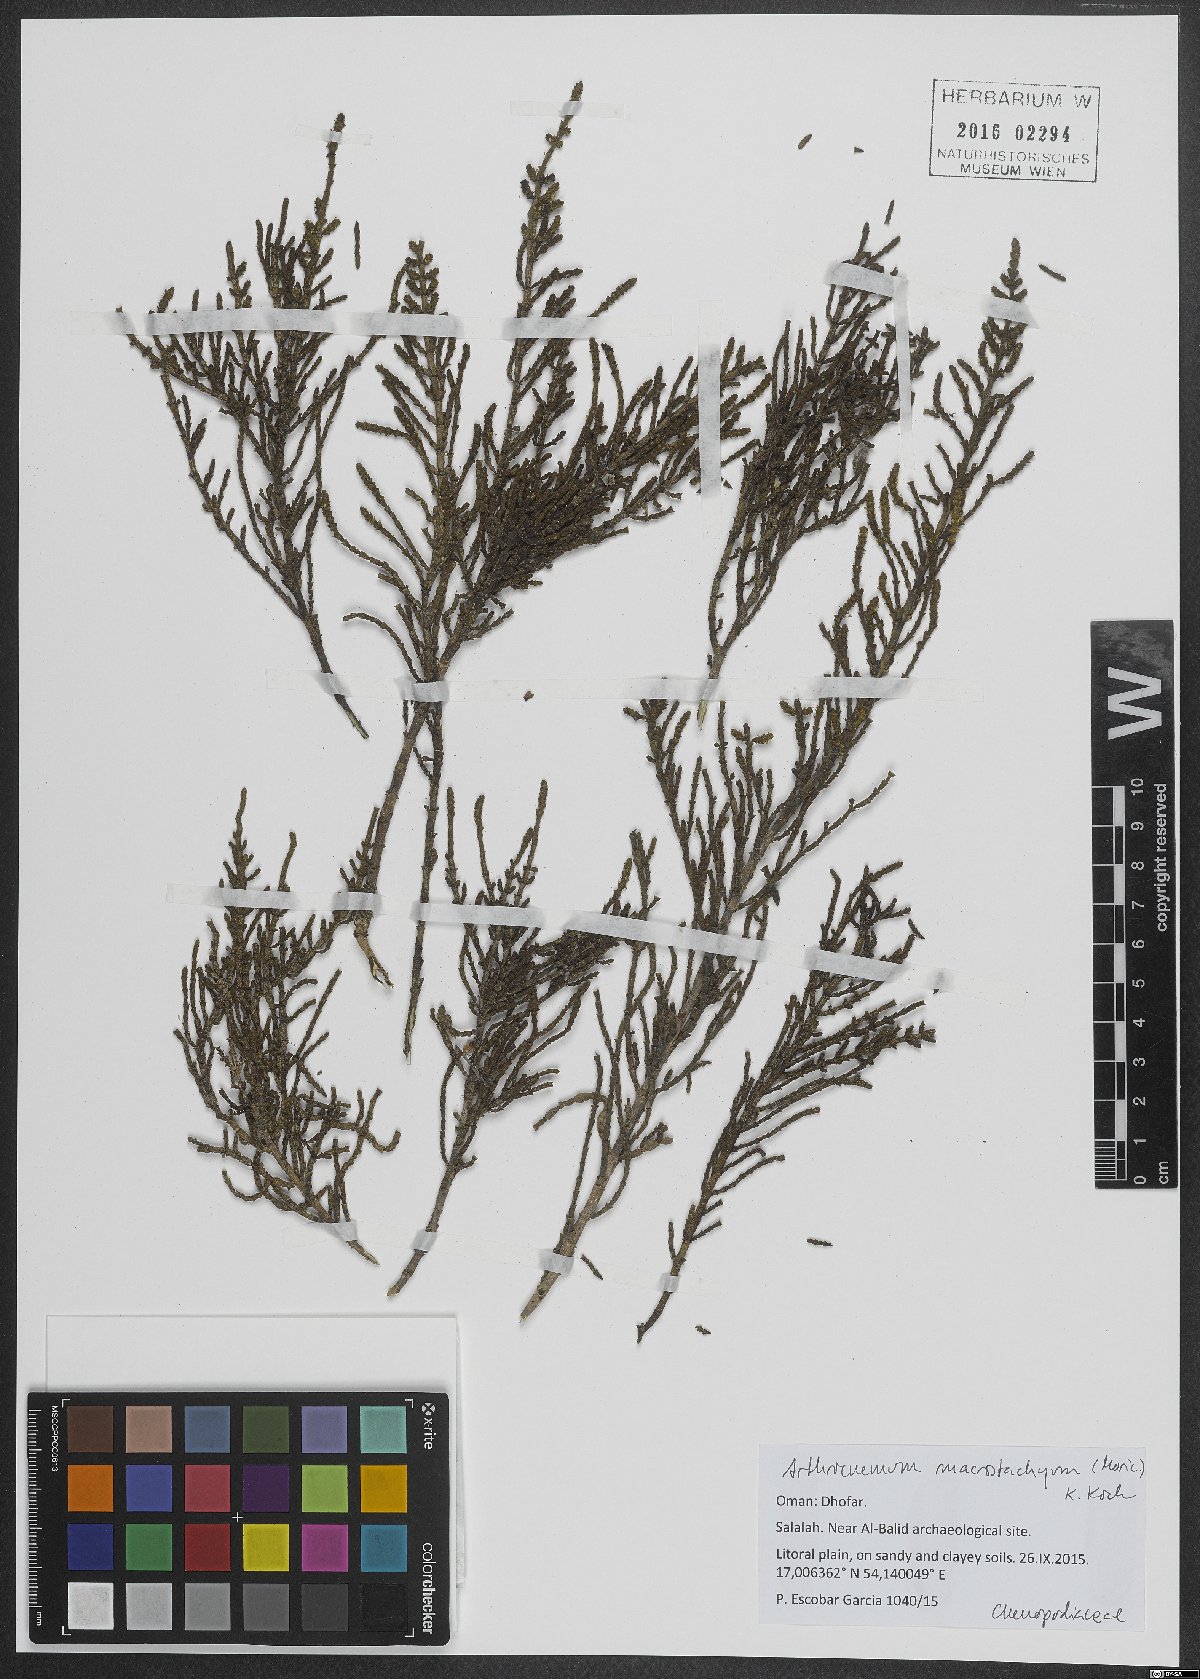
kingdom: Plantae
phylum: Tracheophyta
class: Magnoliopsida
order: Caryophyllales
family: Amaranthaceae
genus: Arthrocaulon
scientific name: Arthrocaulon macrostachyum
